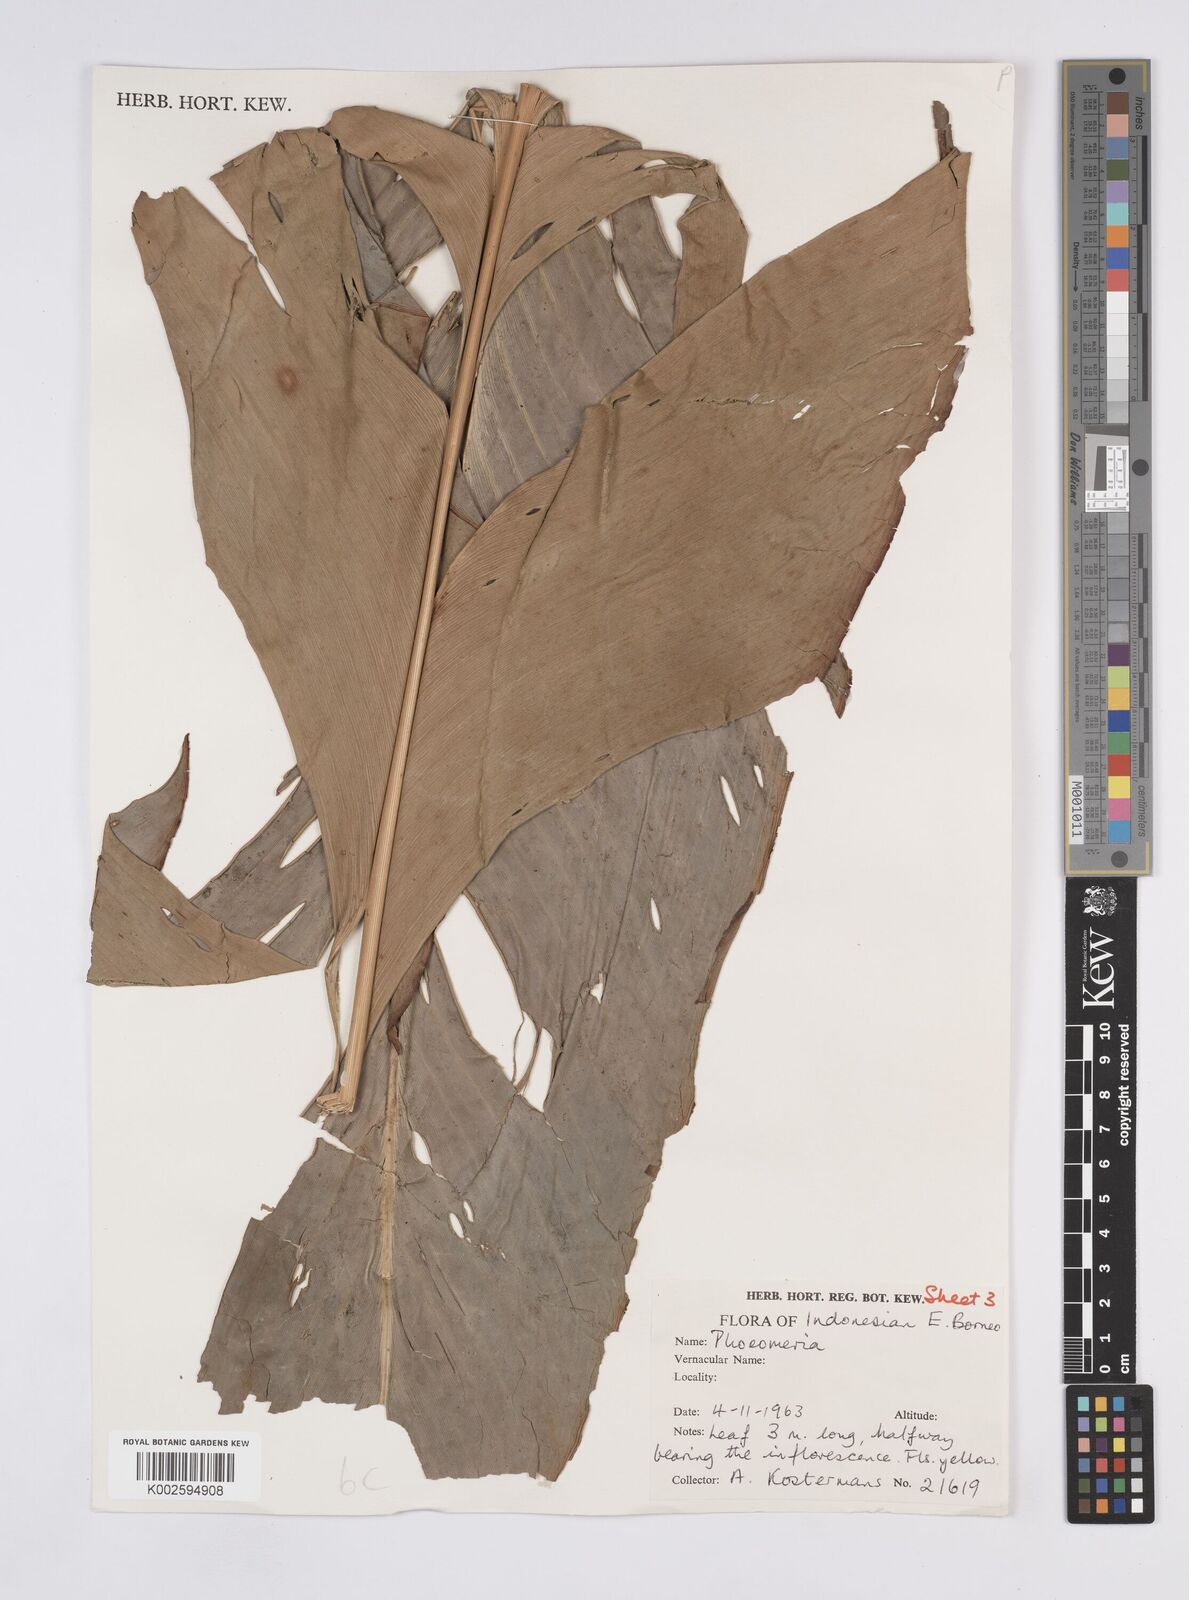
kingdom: Plantae
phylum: Tracheophyta
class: Liliopsida
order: Zingiberales
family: Zingiberaceae
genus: Plagiostachys
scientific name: Plagiostachys crocydocalyx
